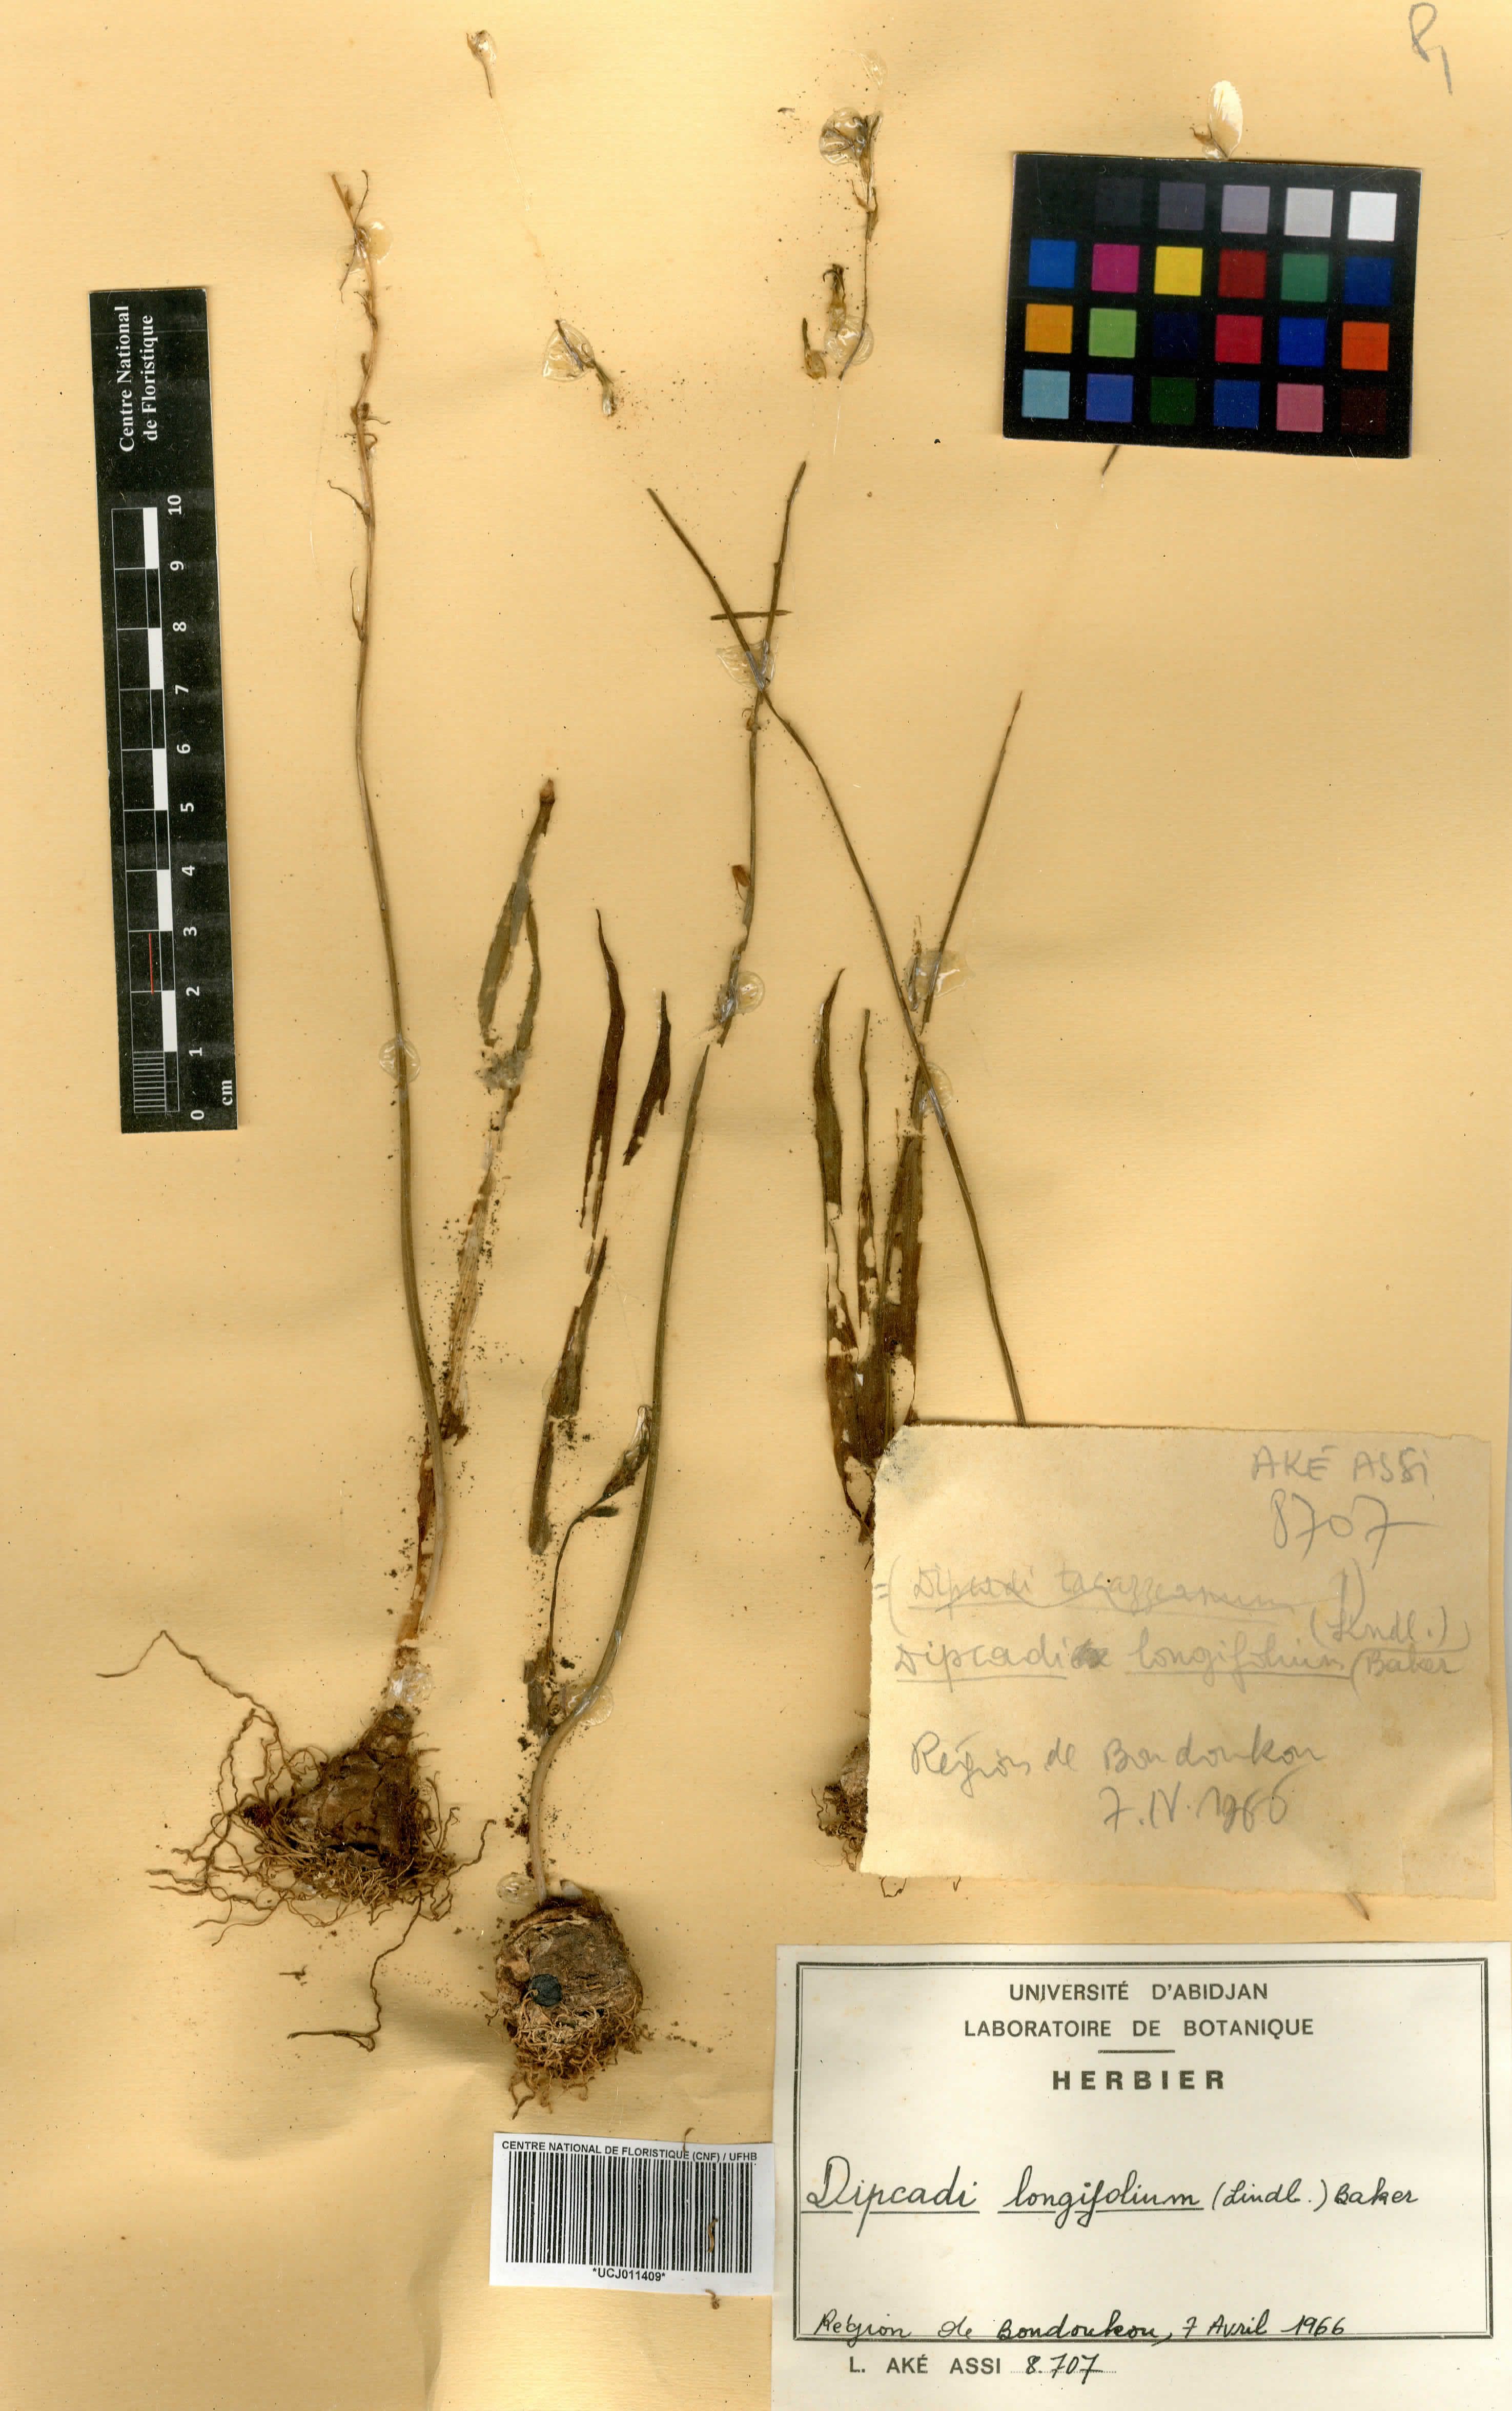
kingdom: Plantae
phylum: Tracheophyta
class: Liliopsida
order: Asparagales
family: Asparagaceae
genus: Dipcadi
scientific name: Dipcadi longifolium
